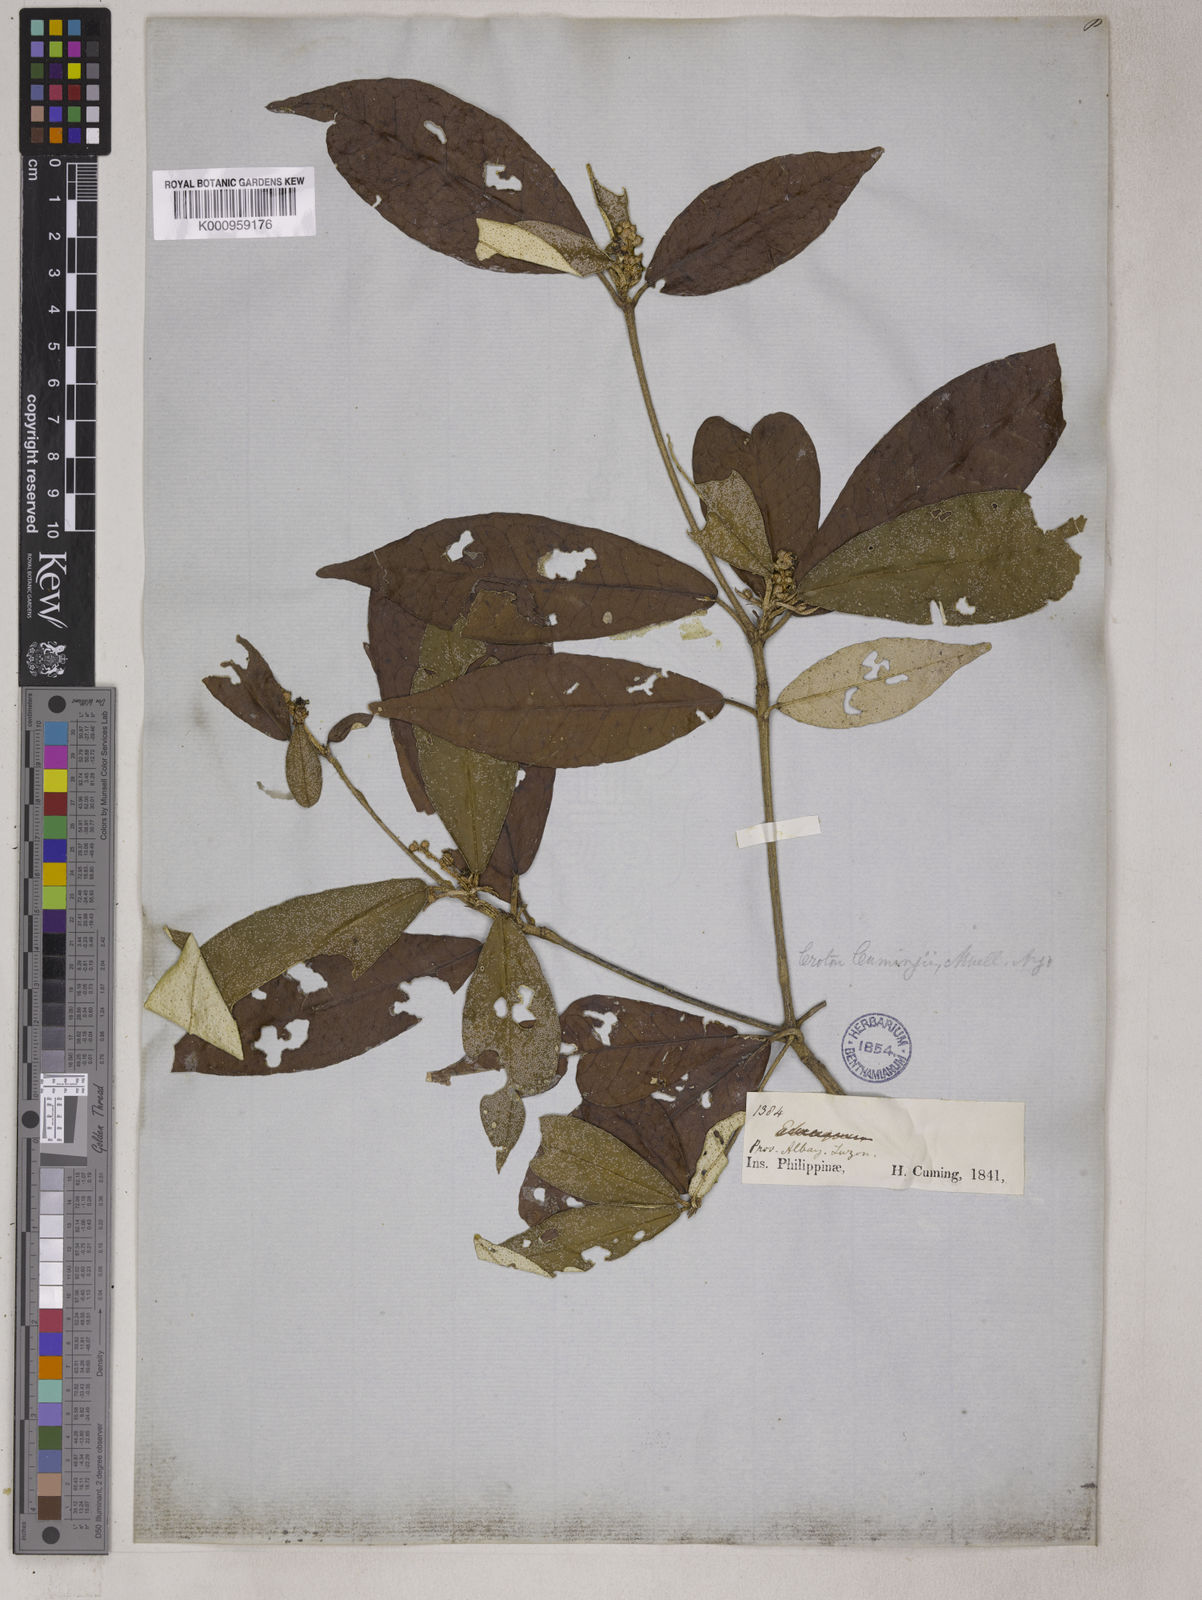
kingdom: Plantae
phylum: Tracheophyta
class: Magnoliopsida
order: Malpighiales
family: Euphorbiaceae
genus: Croton
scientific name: Croton cascarilloides
